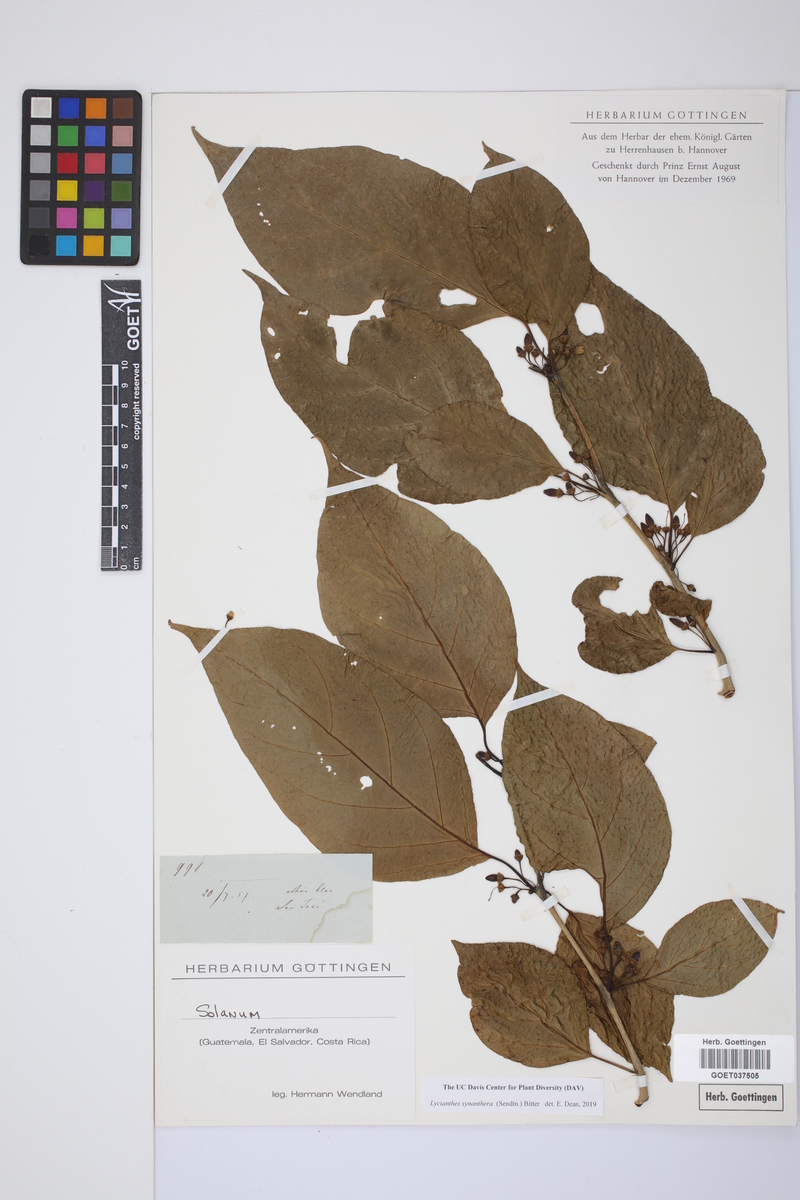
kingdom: Plantae
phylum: Tracheophyta
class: Magnoliopsida
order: Solanales
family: Solanaceae
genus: Lycianthes
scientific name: Lycianthes synanthera
